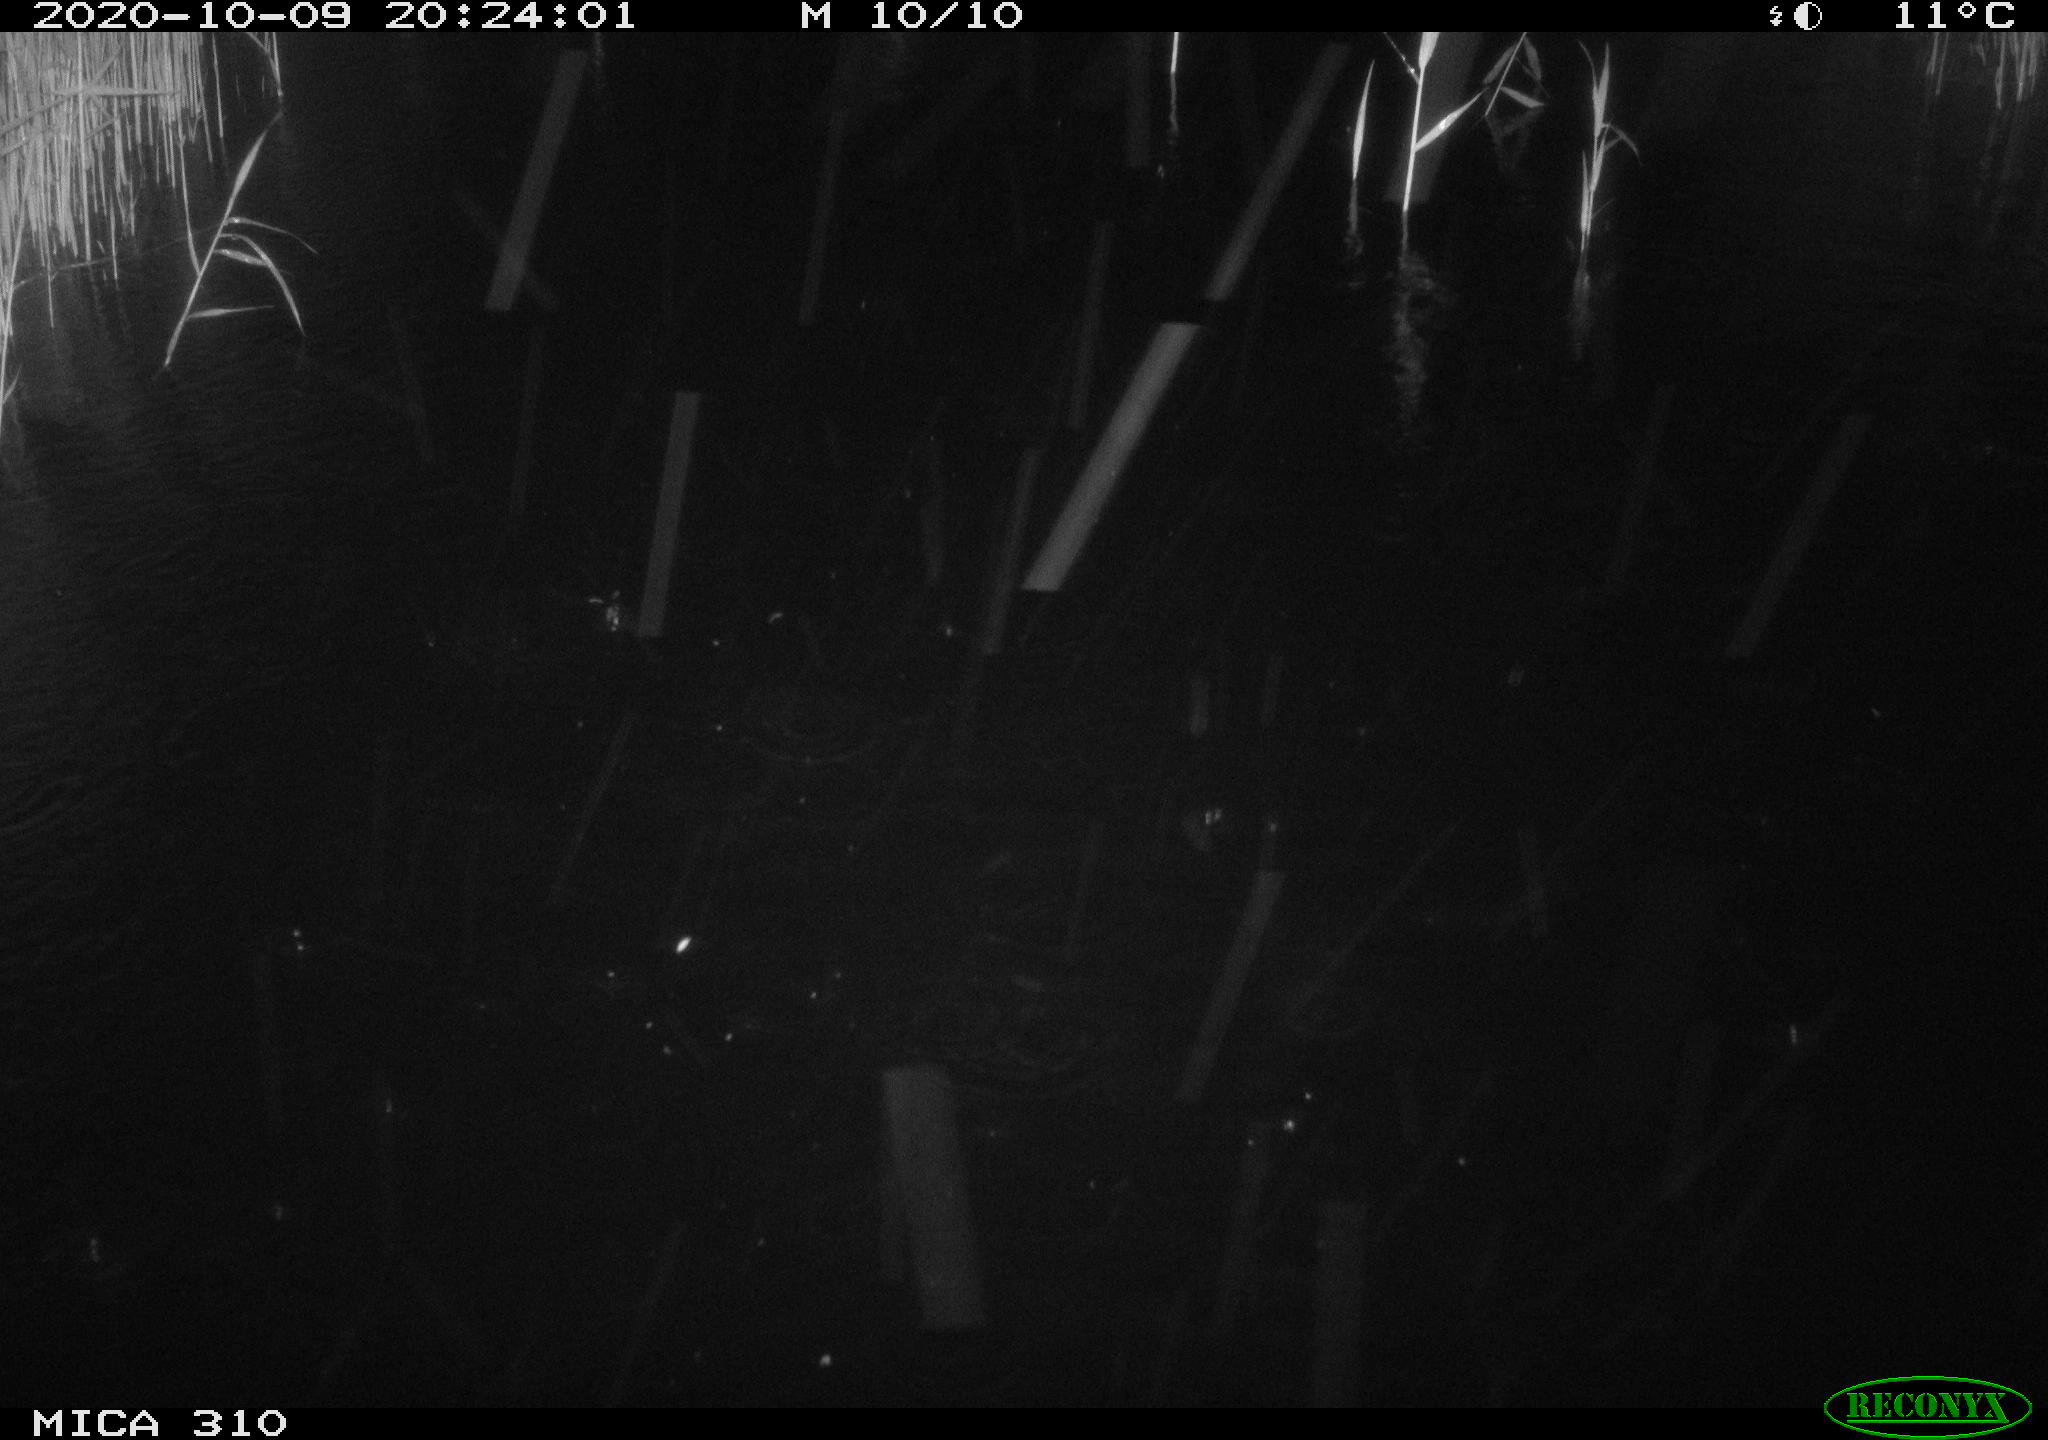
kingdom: Animalia
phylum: Chordata
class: Mammalia
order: Rodentia
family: Cricetidae
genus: Ondatra
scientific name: Ondatra zibethicus
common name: Muskrat
